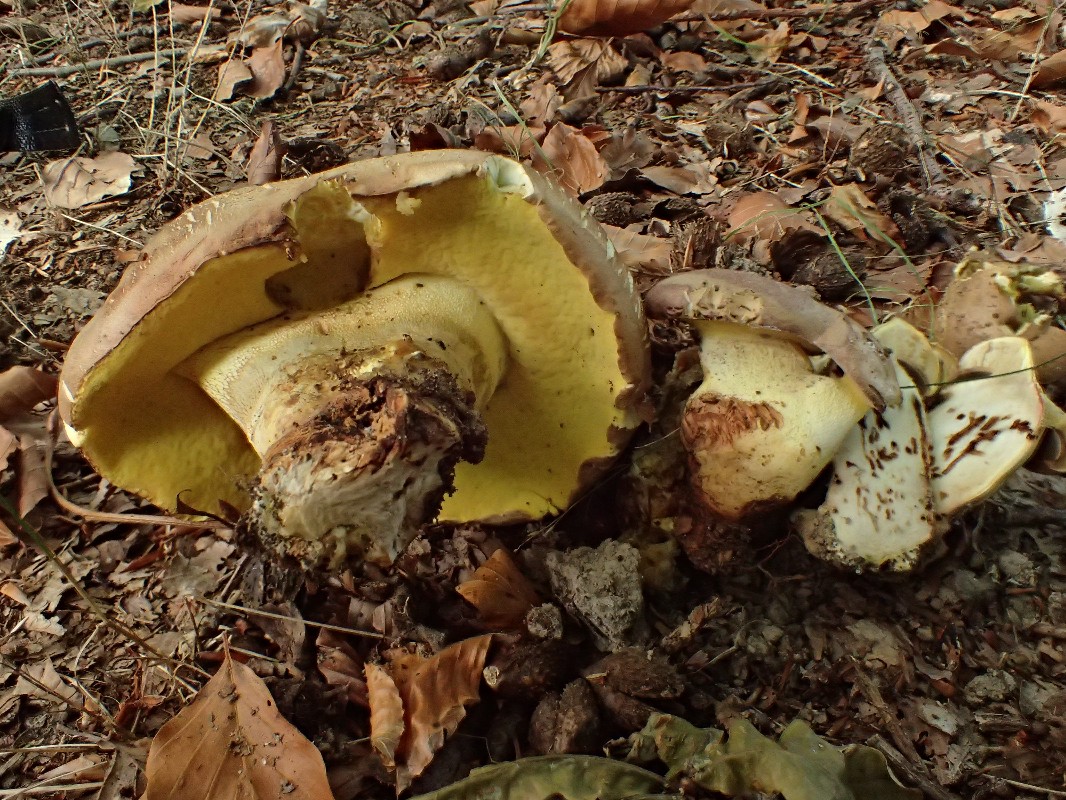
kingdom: Fungi
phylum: Basidiomycota
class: Agaricomycetes
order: Boletales
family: Boletaceae
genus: Butyriboletus
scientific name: Butyriboletus appendiculatus
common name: tenstokket rørhat
